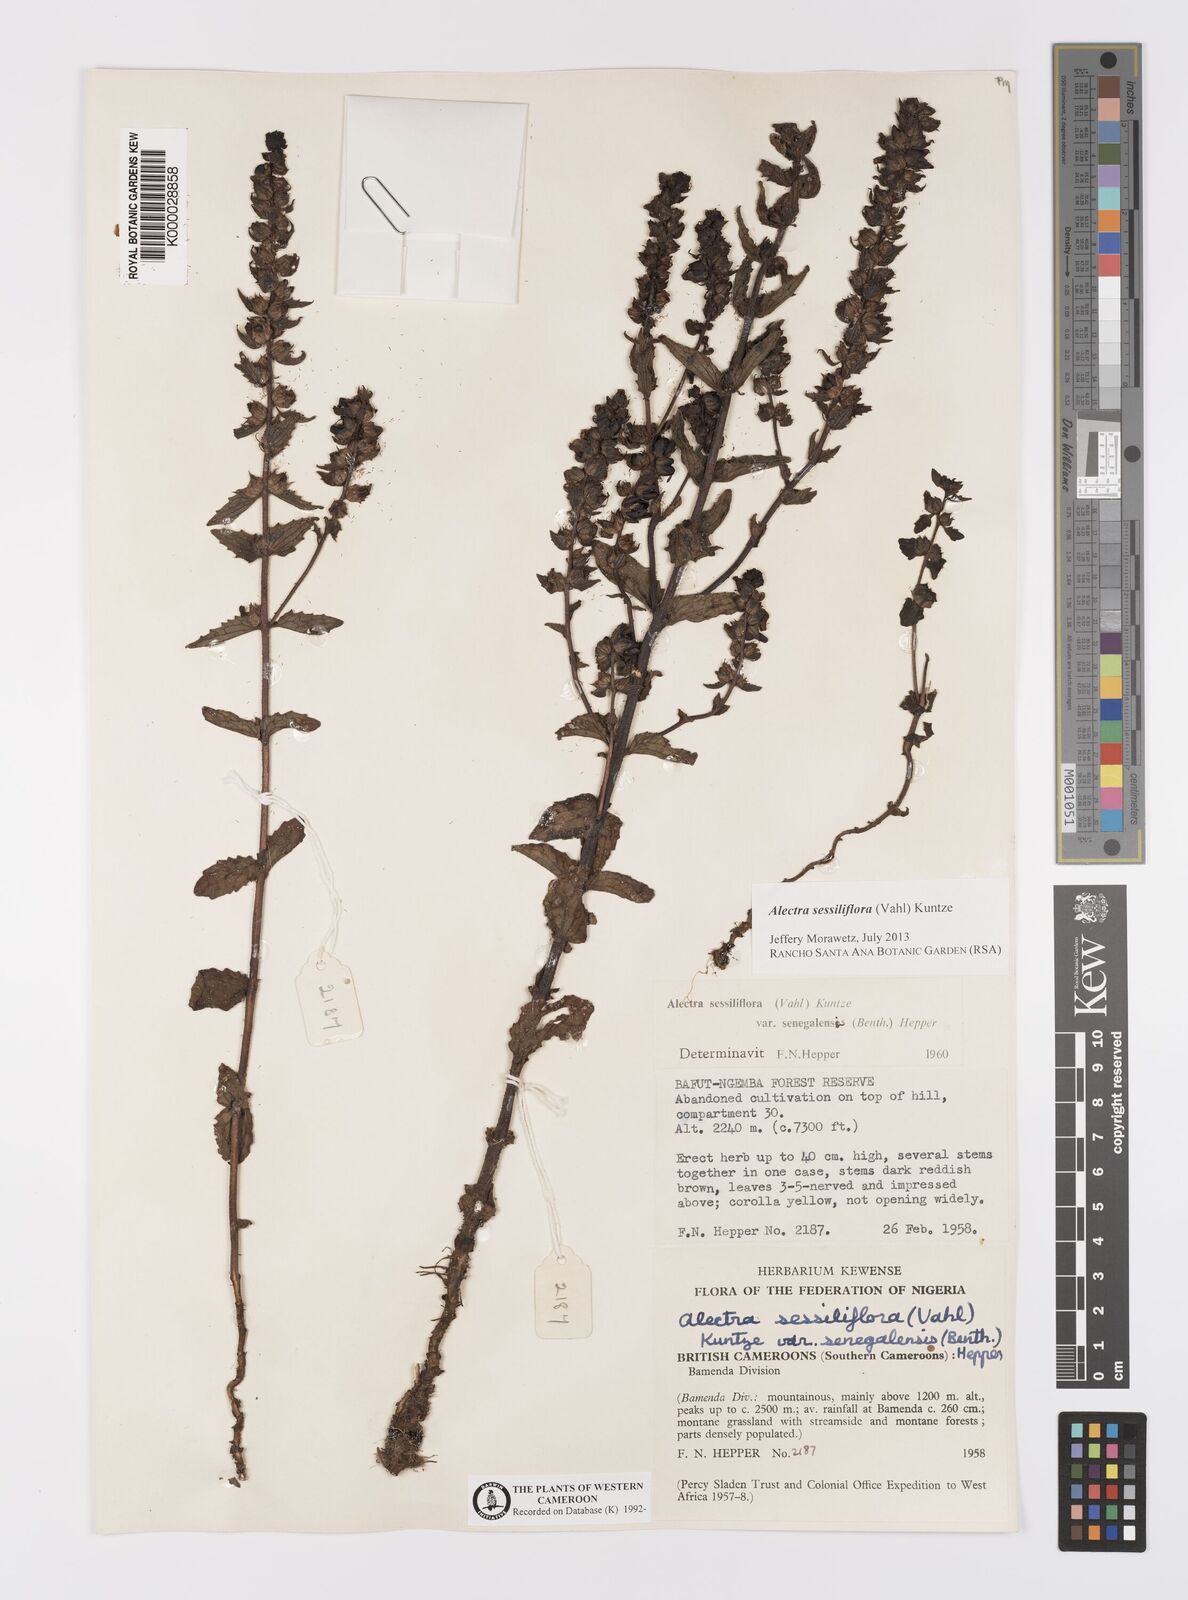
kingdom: Plantae
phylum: Tracheophyta
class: Magnoliopsida
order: Lamiales
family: Orobanchaceae
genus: Alectra
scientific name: Alectra sessiliflora
